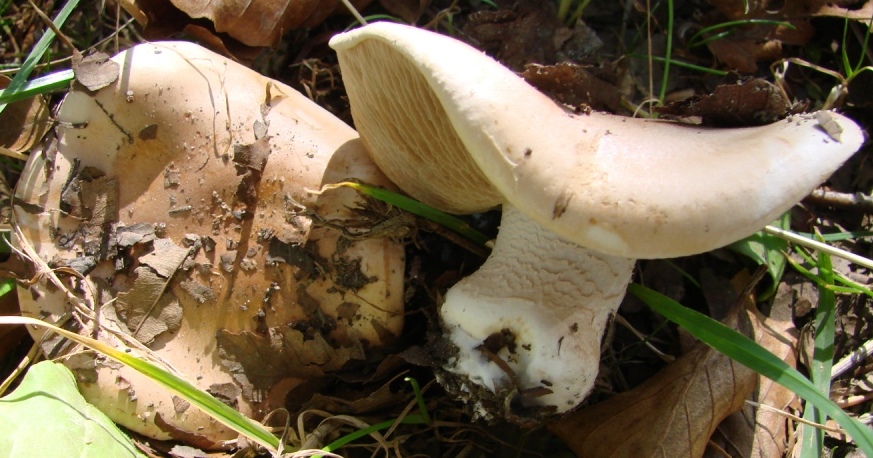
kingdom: Fungi
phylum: Basidiomycota
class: Agaricomycetes
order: Agaricales
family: Hymenogastraceae
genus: Hebeloma
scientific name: Hebeloma sinapizans
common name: ræddike-tåreblad
